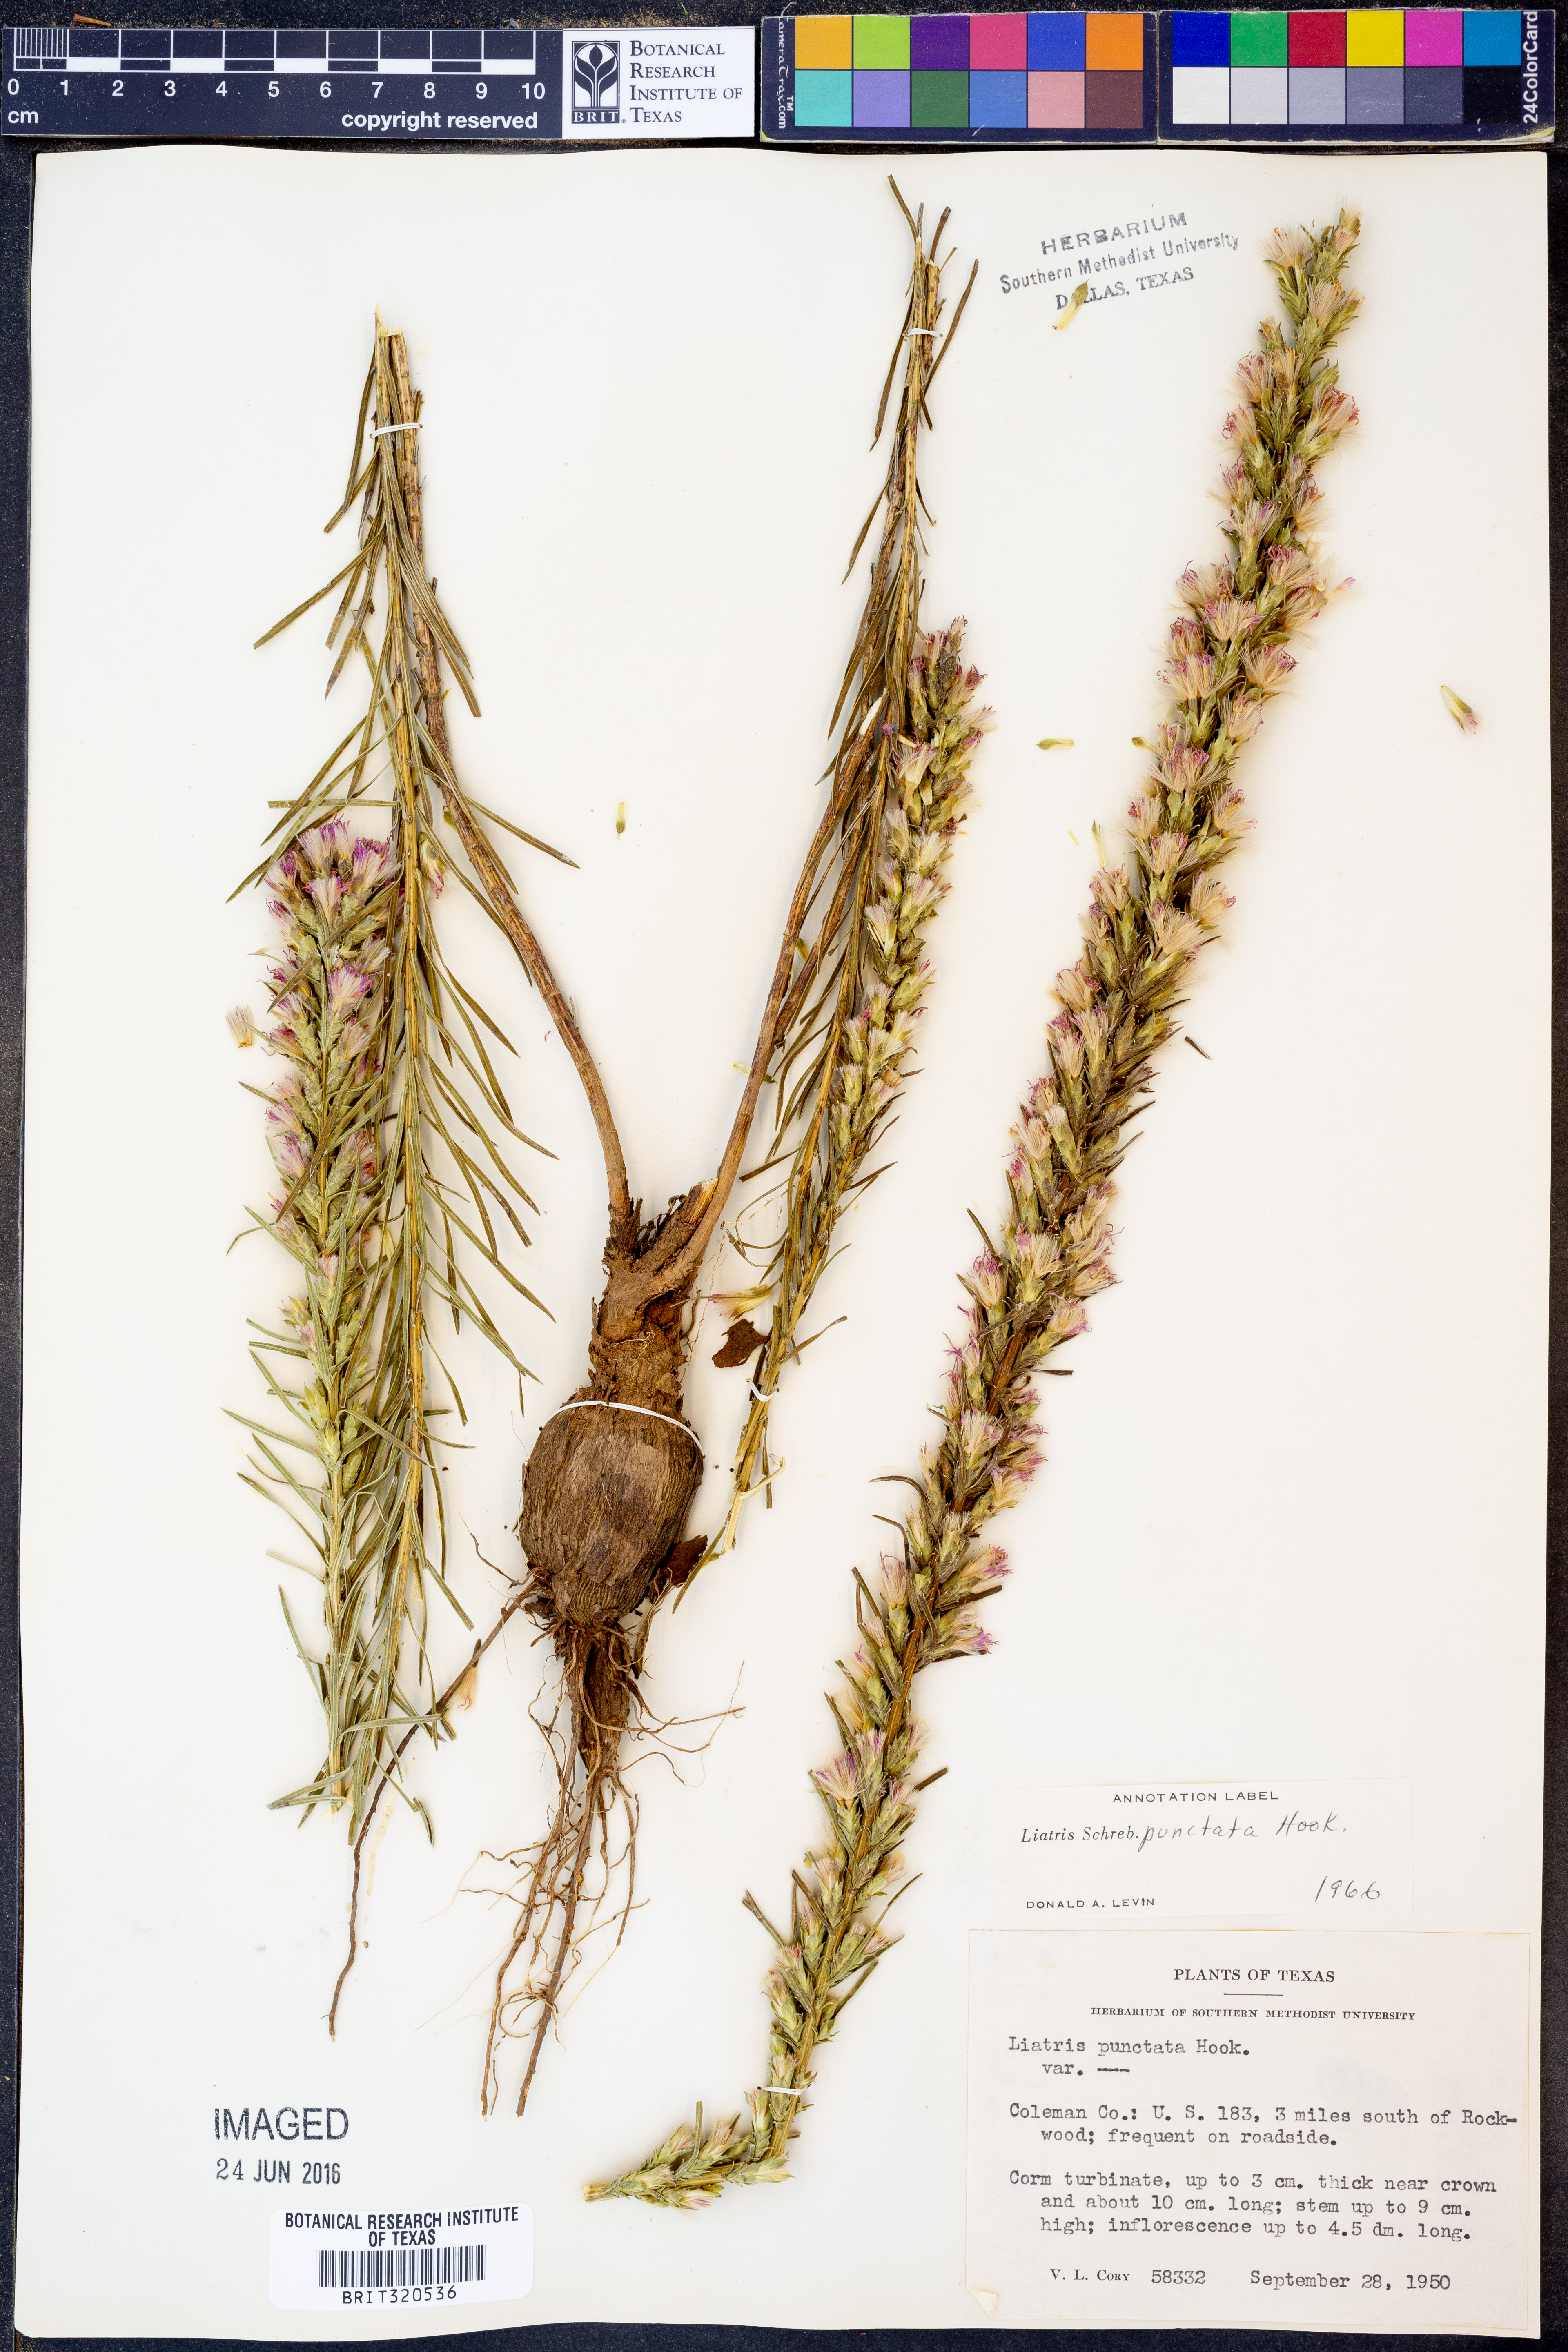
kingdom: Plantae
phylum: Tracheophyta
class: Magnoliopsida
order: Asterales
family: Asteraceae
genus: Liatris
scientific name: Liatris punctata
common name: Dotted gayfeather
